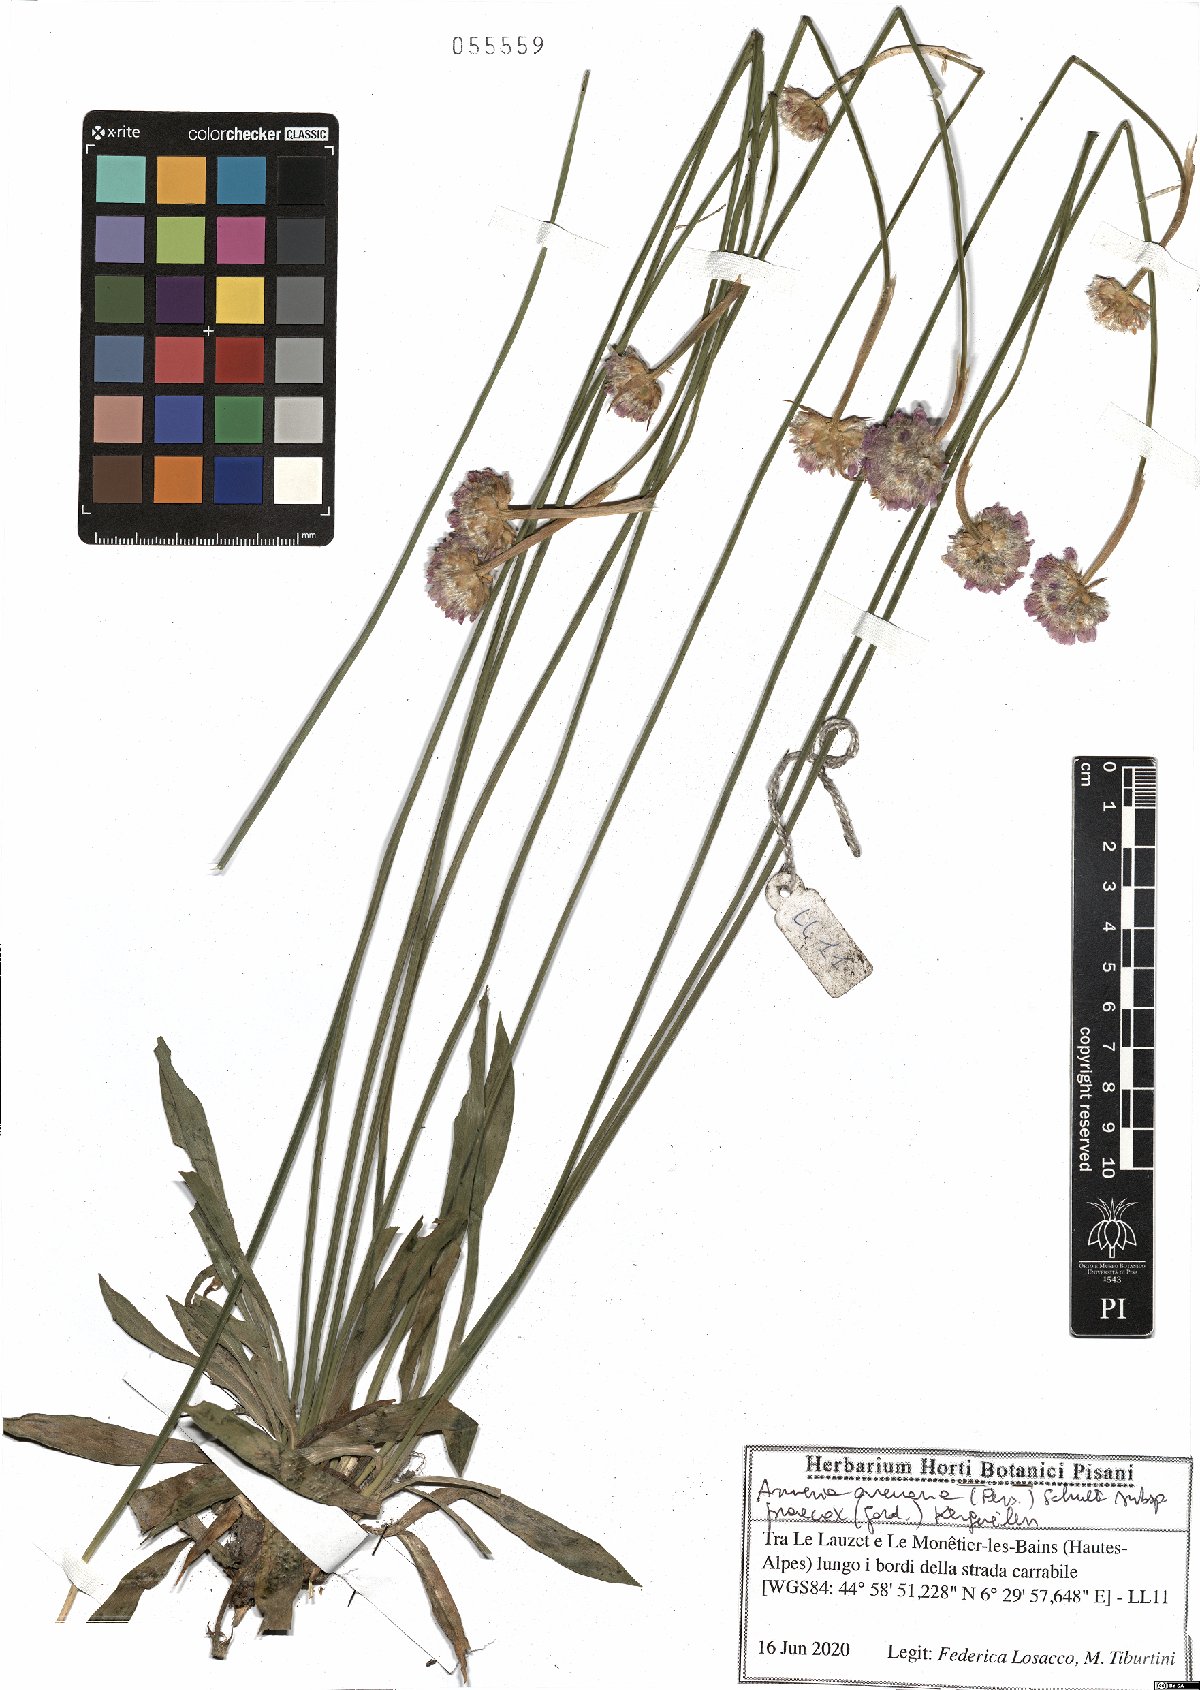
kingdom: Plantae
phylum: Tracheophyta
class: Magnoliopsida
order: Caryophyllales
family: Plumbaginaceae
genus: Armeria
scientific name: Armeria arenaria
